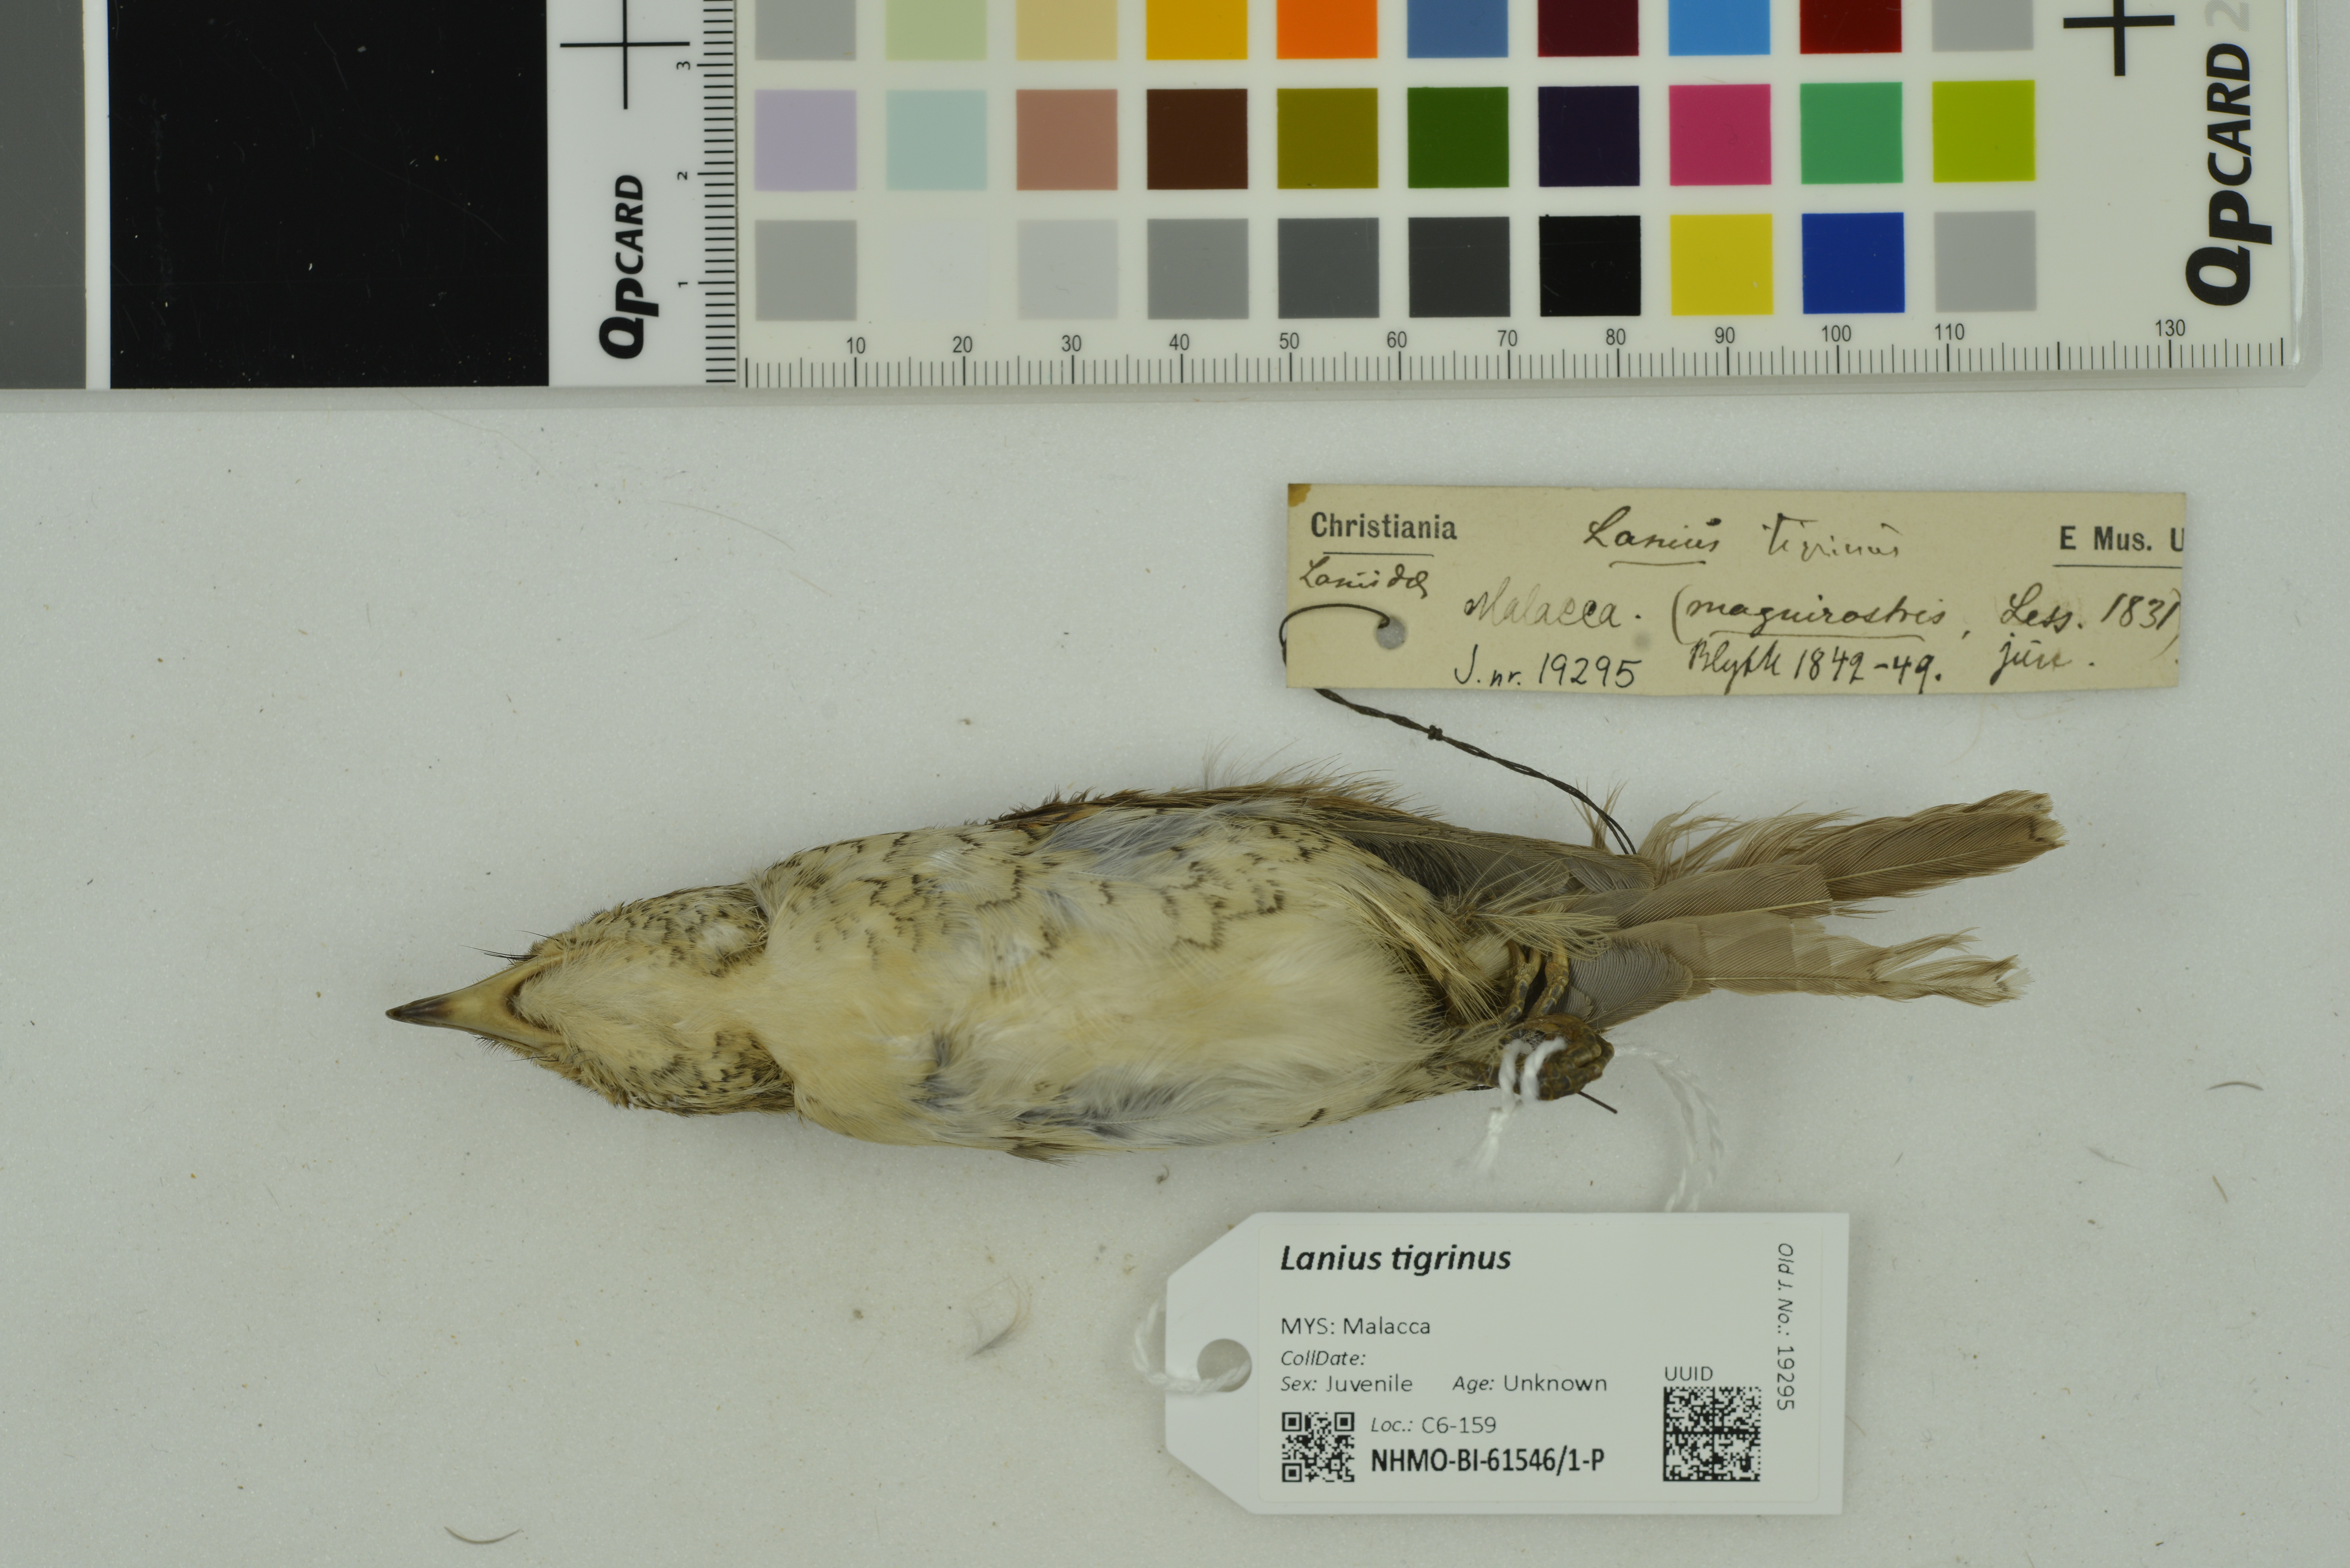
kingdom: Animalia
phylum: Chordata
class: Aves
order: Passeriformes
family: Laniidae
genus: Lanius
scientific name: Lanius tigrinus
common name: Tiger shrike
